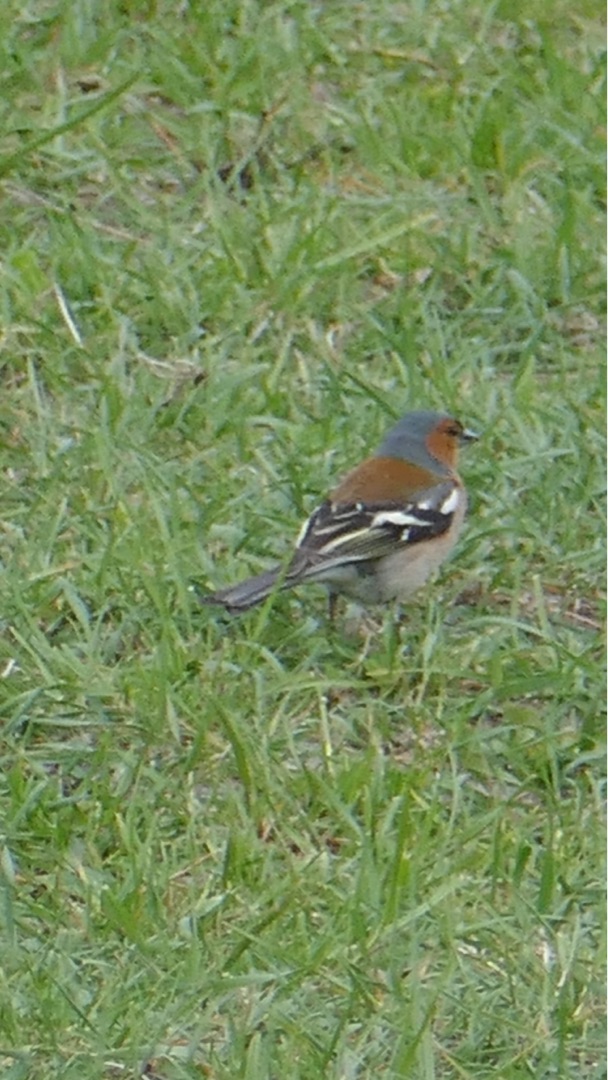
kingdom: Animalia
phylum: Chordata
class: Aves
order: Passeriformes
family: Fringillidae
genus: Fringilla
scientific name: Fringilla coelebs
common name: Bogfinke
